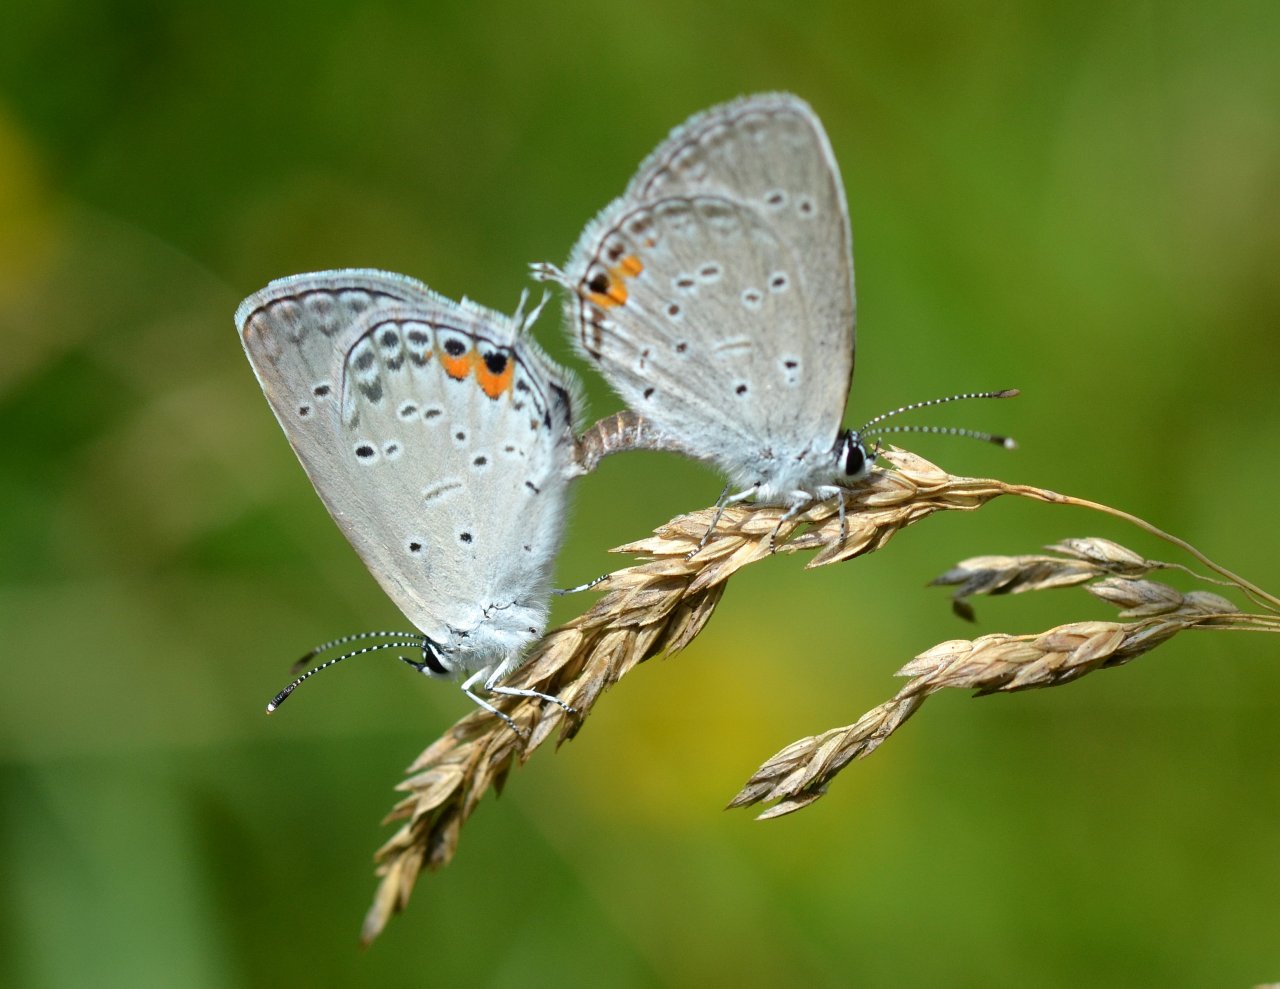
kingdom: Animalia
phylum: Arthropoda
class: Insecta
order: Lepidoptera
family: Lycaenidae
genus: Elkalyce
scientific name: Elkalyce comyntas
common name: Eastern Tailed-Blue
